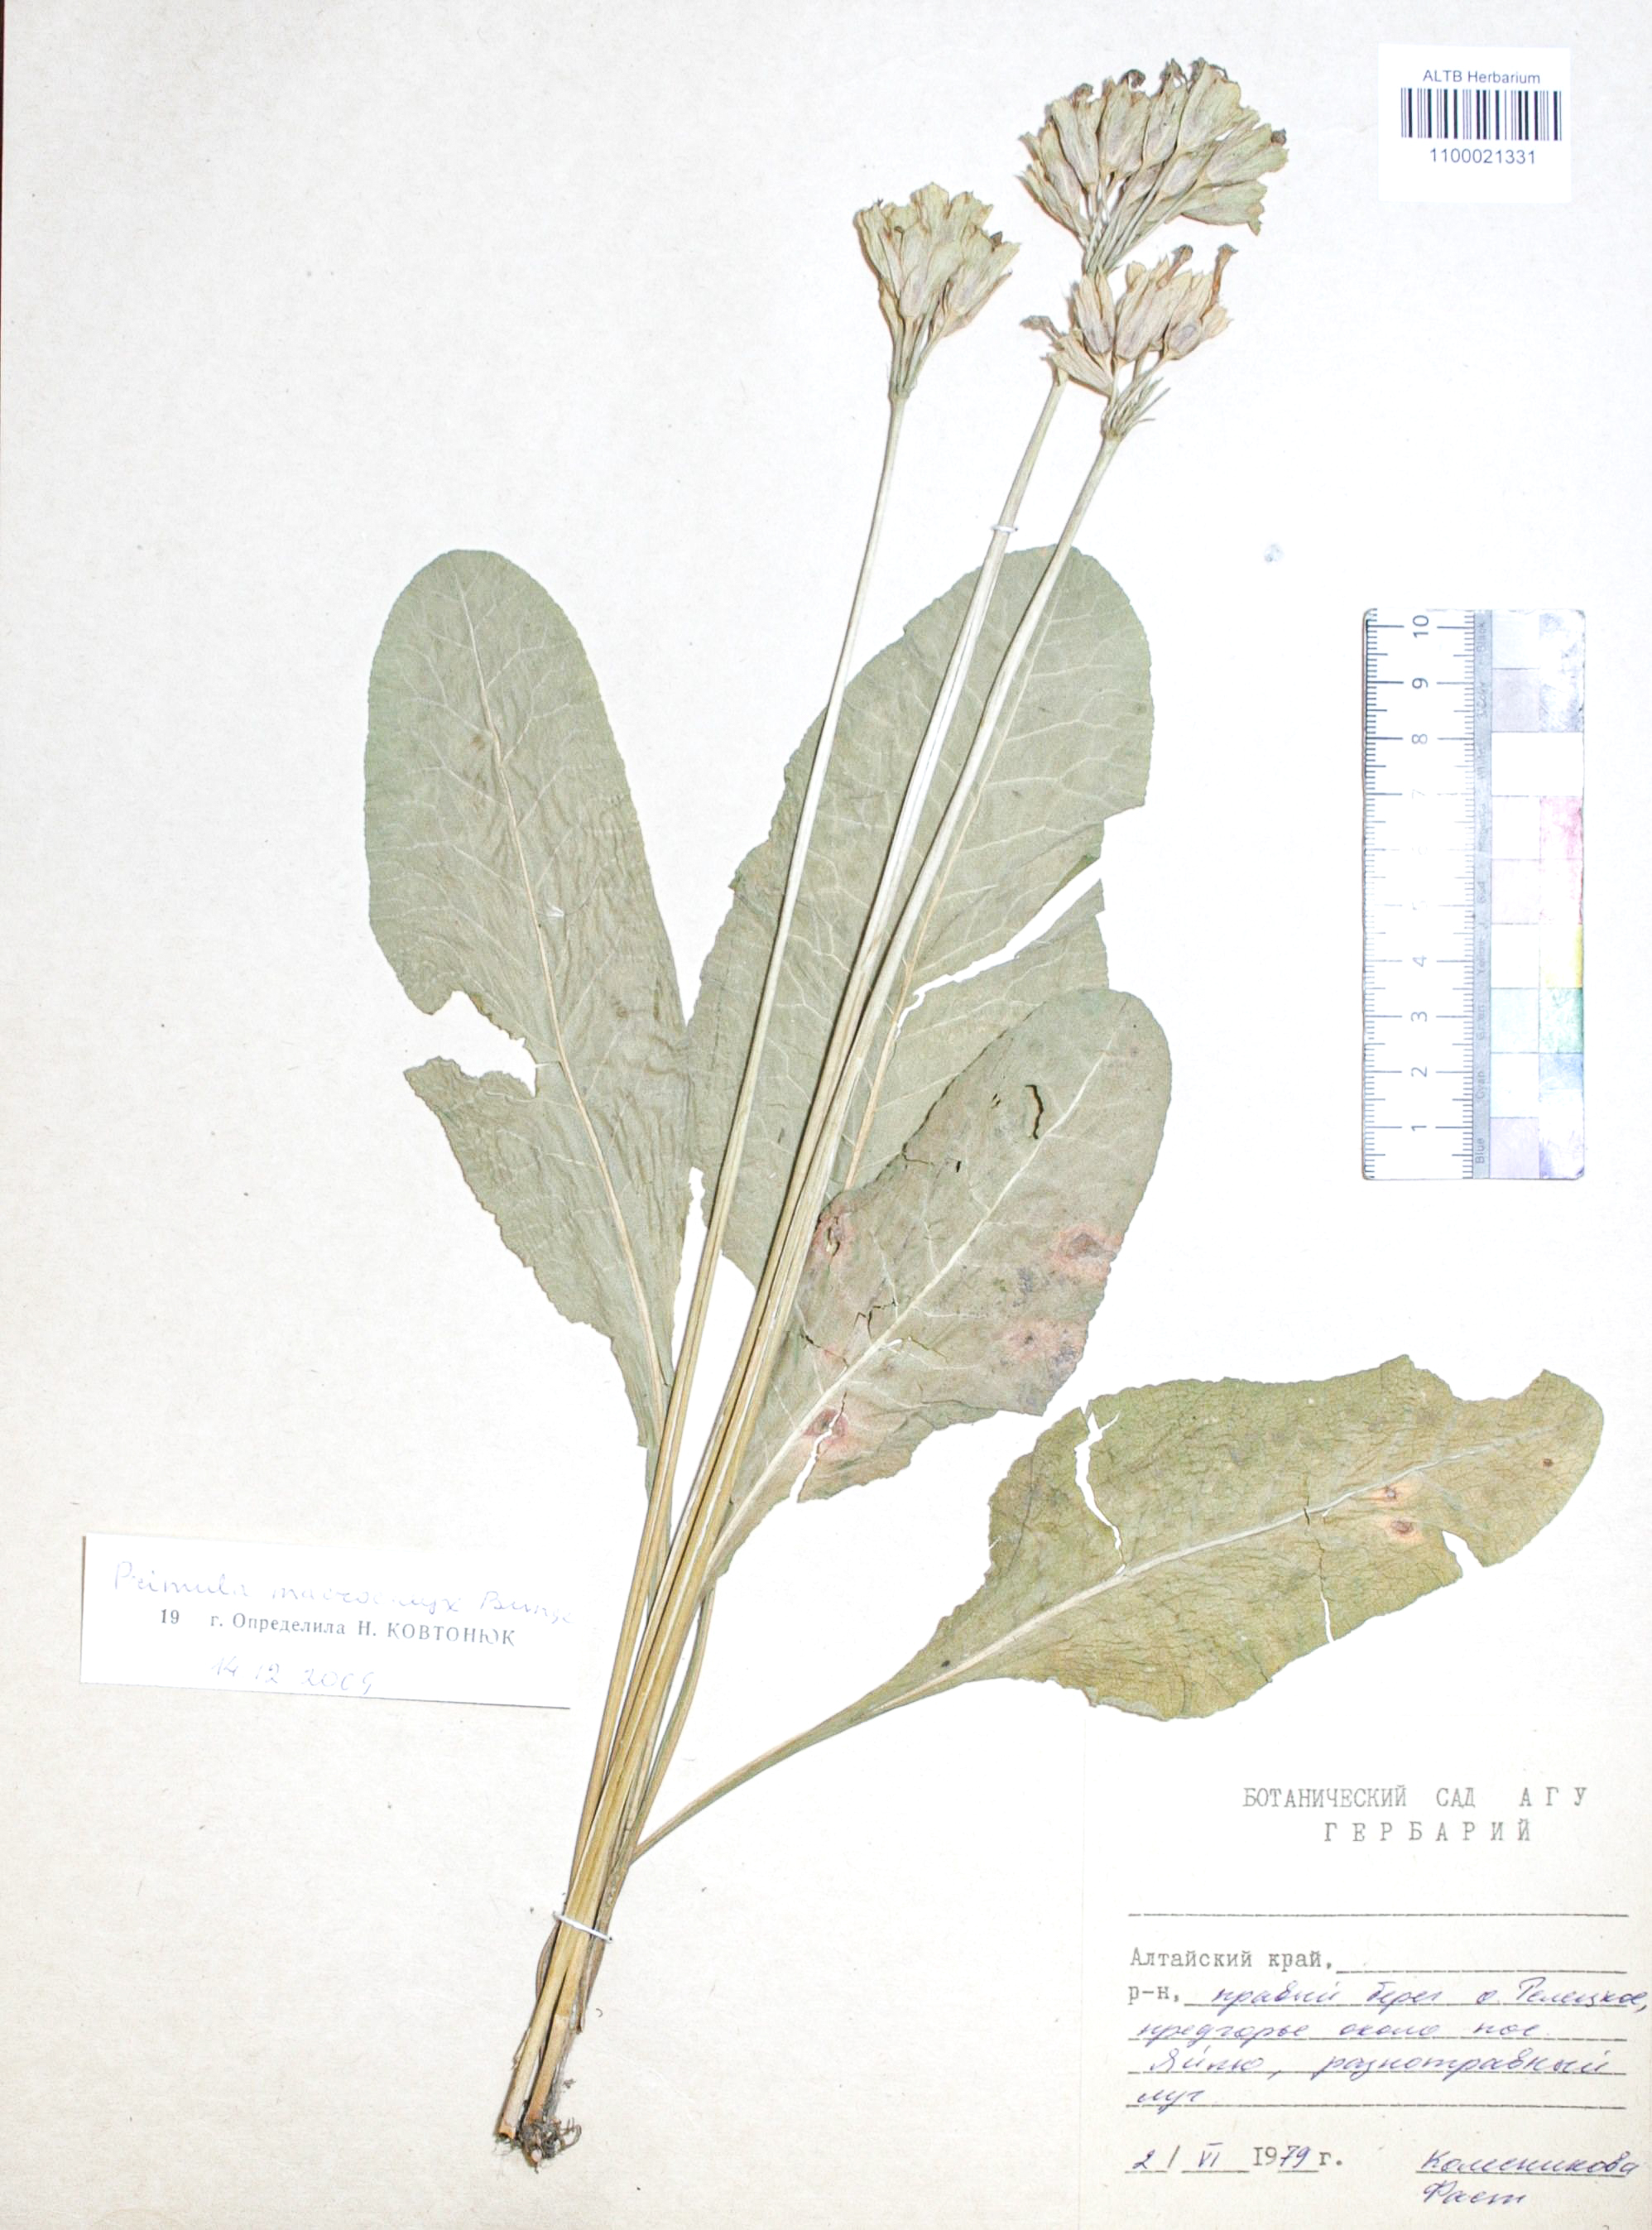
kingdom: Plantae
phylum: Tracheophyta
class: Magnoliopsida
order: Ericales
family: Primulaceae
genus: Primula
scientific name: Primula veris
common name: Cowslip
